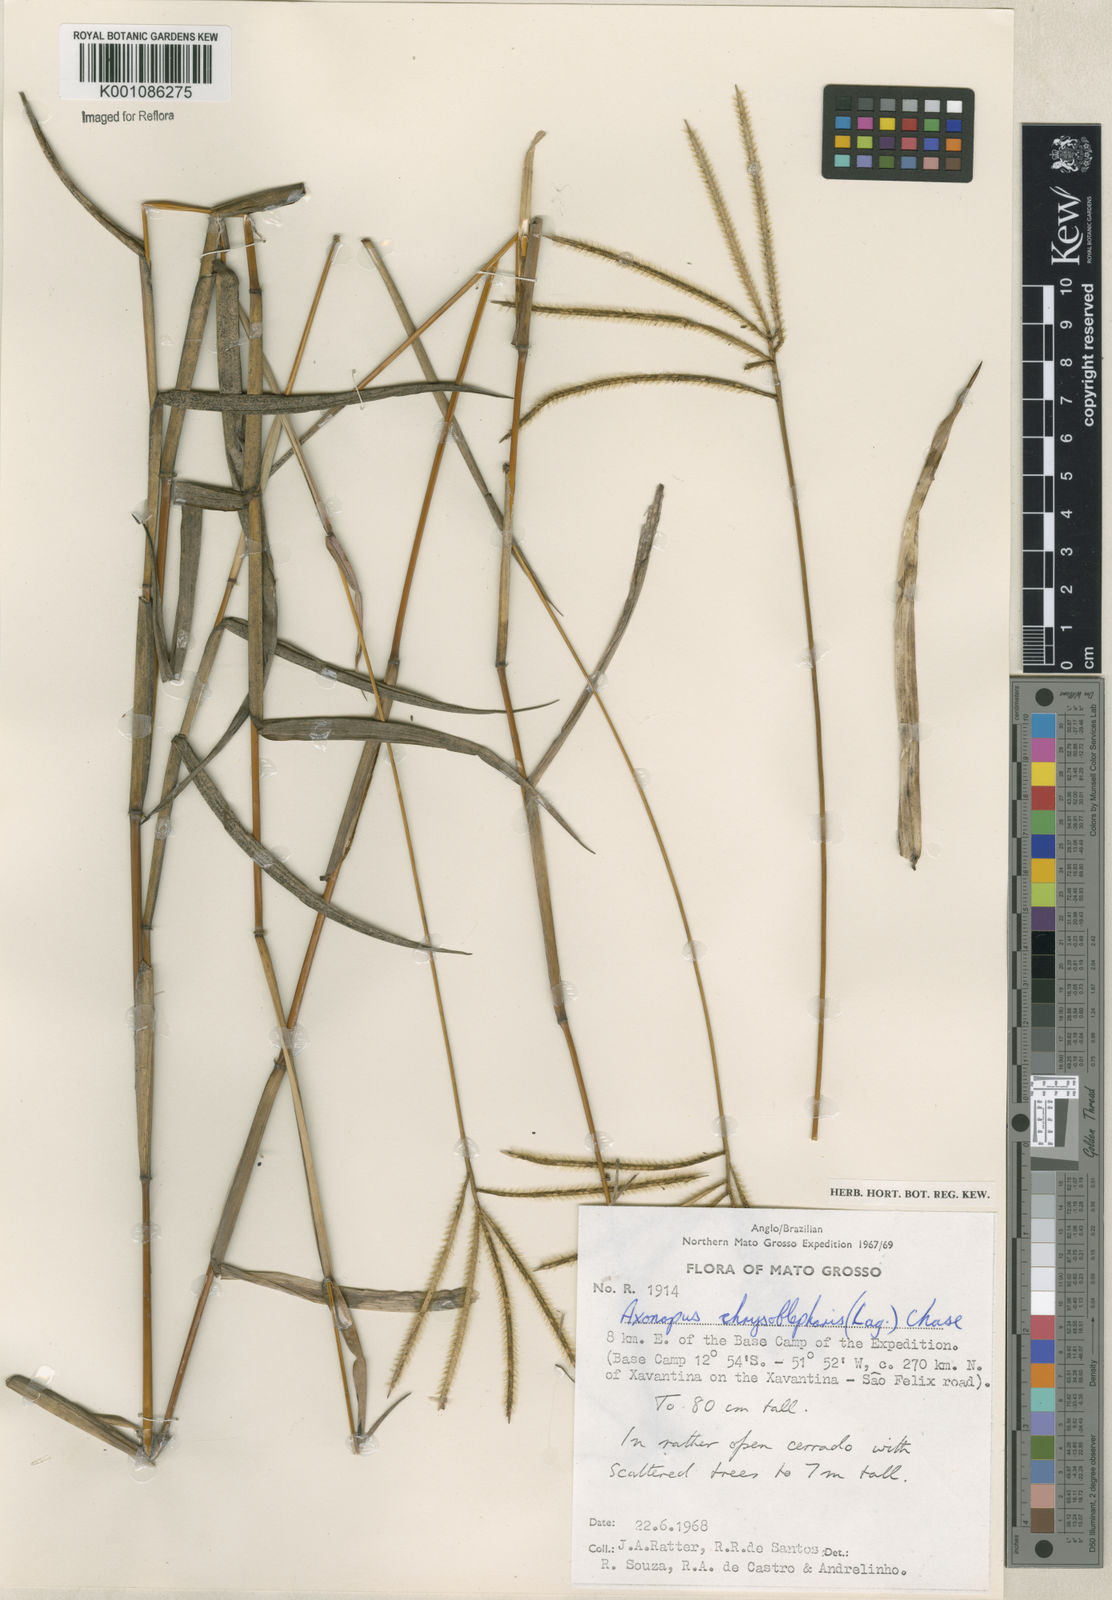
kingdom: Plantae
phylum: Tracheophyta
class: Liliopsida
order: Poales
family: Poaceae
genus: Axonopus
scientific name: Axonopus chrysoblepharis
